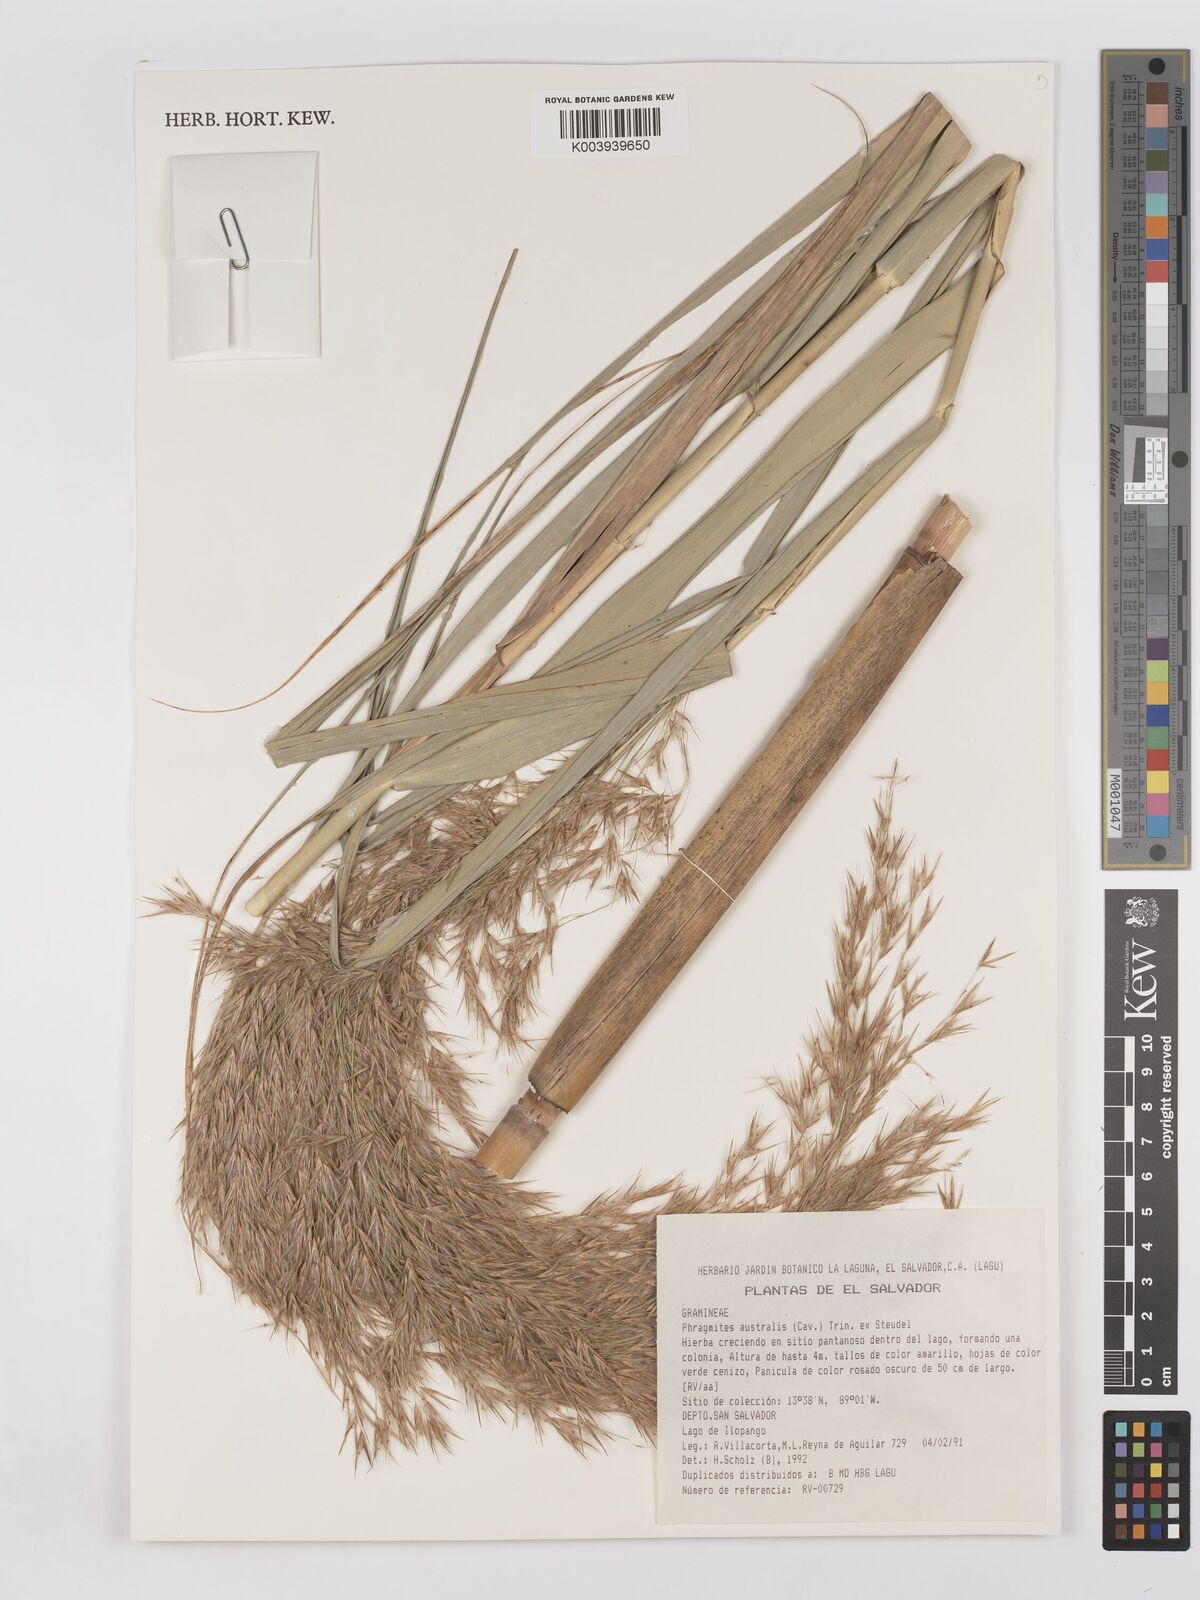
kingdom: Plantae
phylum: Tracheophyta
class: Liliopsida
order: Poales
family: Poaceae
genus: Phragmites
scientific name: Phragmites australis
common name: Common reed
